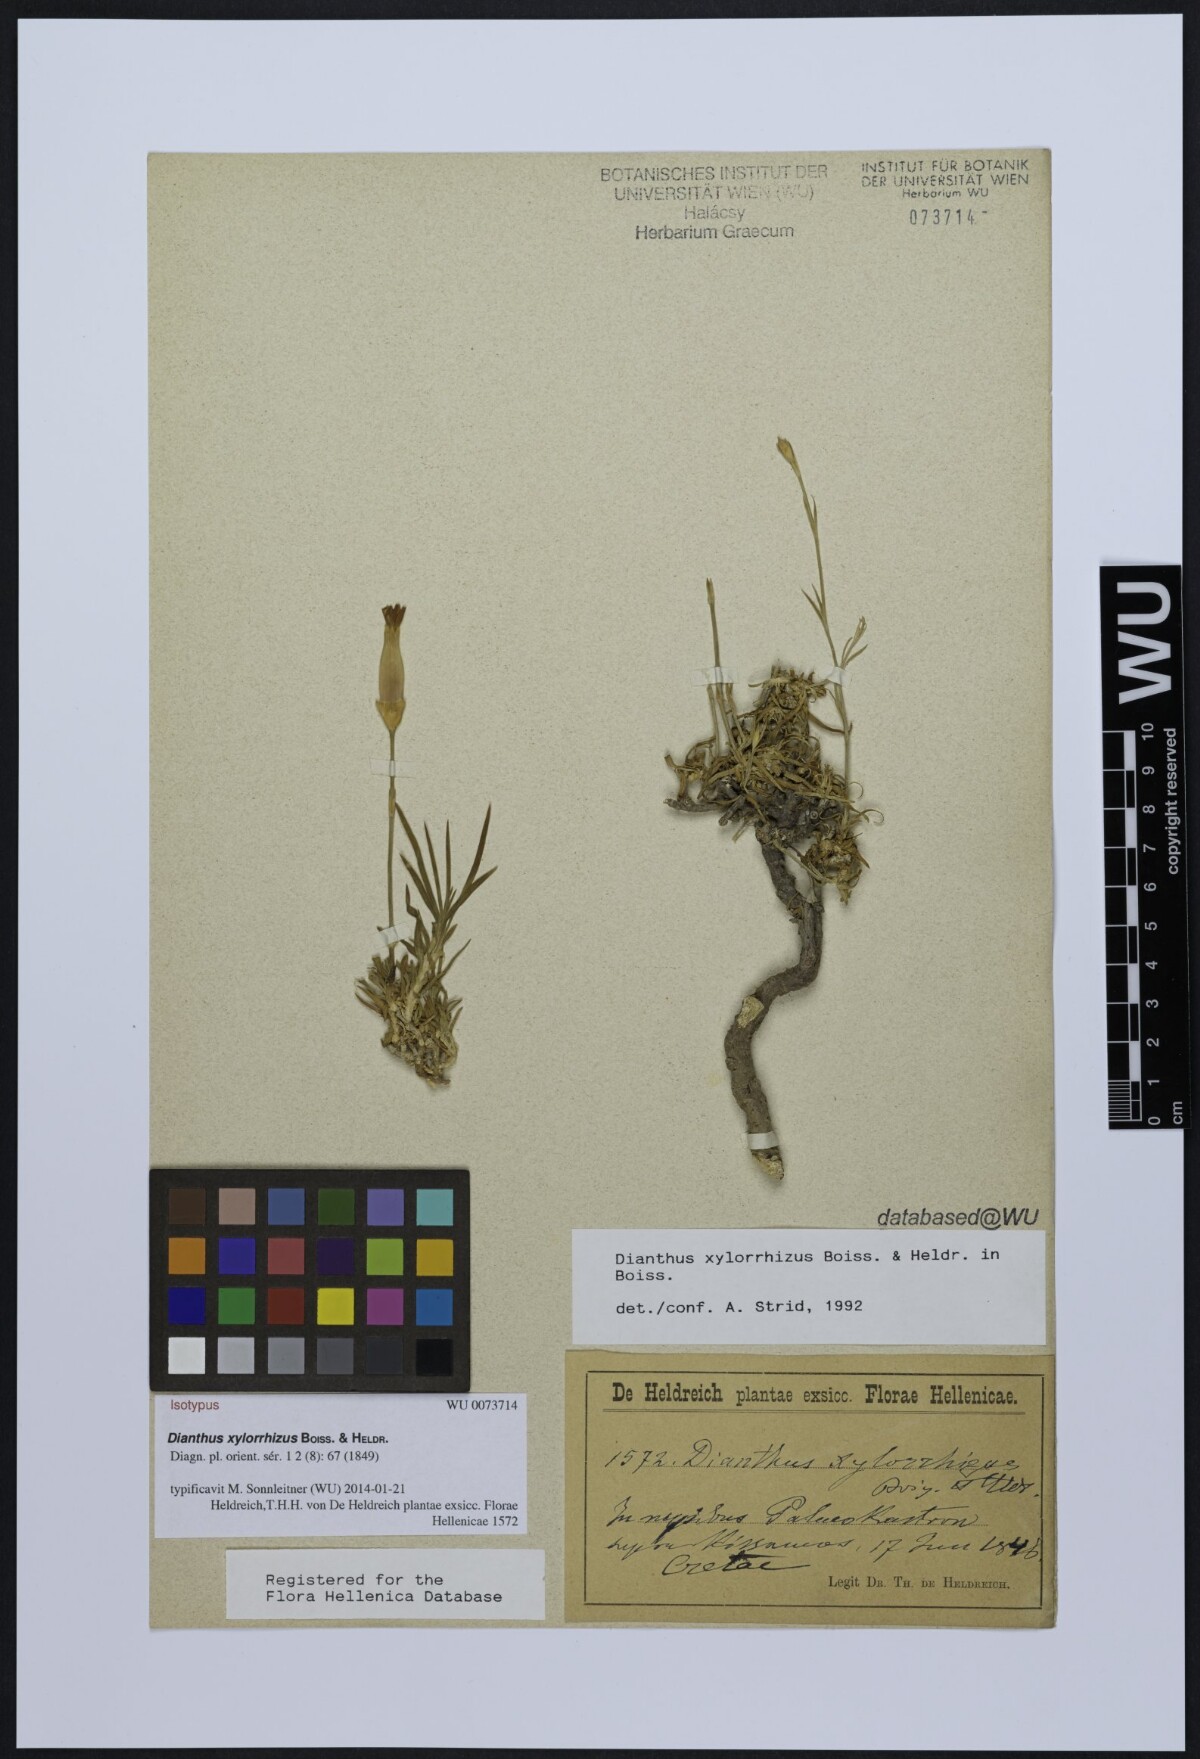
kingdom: Plantae
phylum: Tracheophyta
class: Magnoliopsida
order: Caryophyllales
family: Caryophyllaceae
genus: Dianthus
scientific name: Dianthus xylorrhizus
